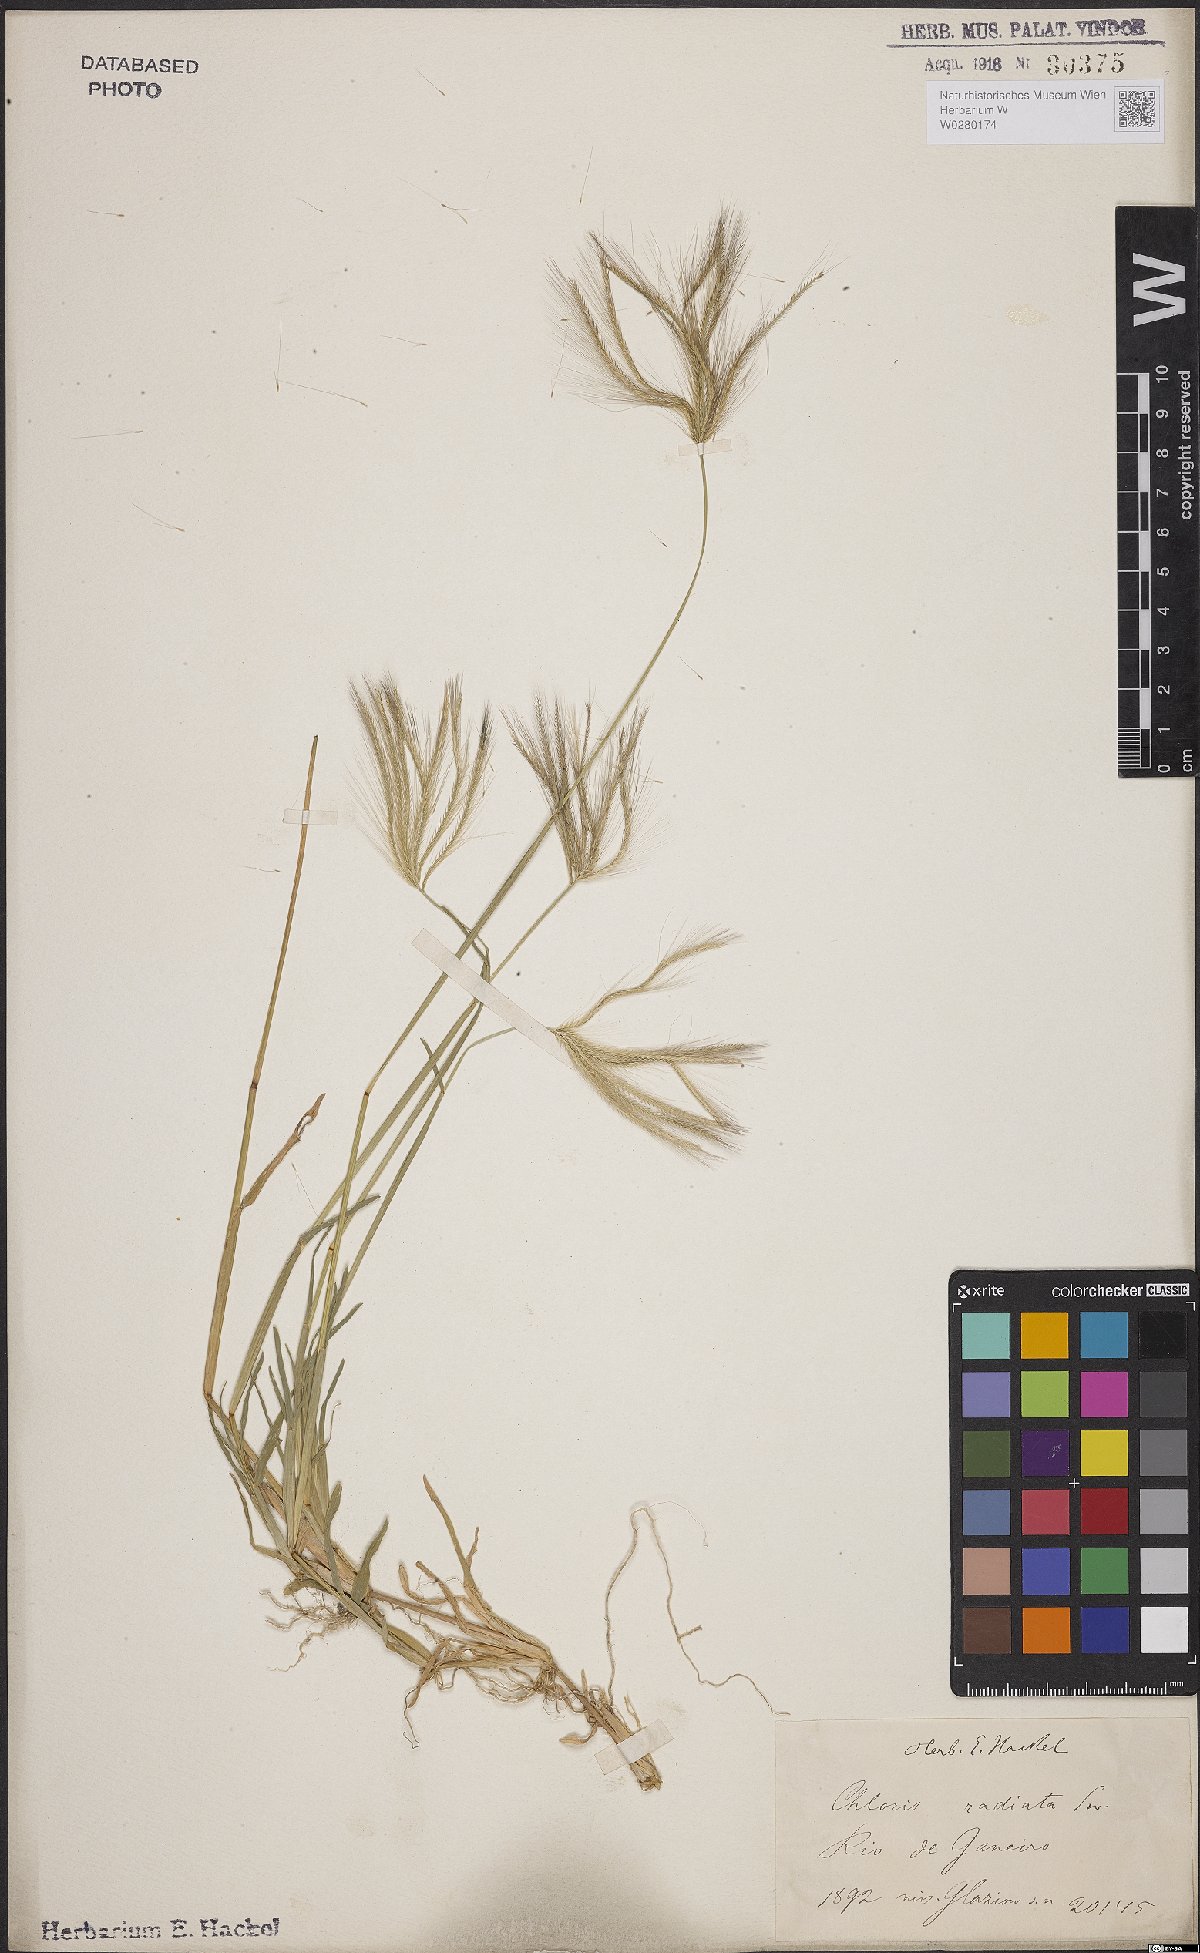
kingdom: Plantae
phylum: Tracheophyta
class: Liliopsida
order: Poales
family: Poaceae
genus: Chloris
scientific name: Chloris radiata
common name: Radiate fingergrass
